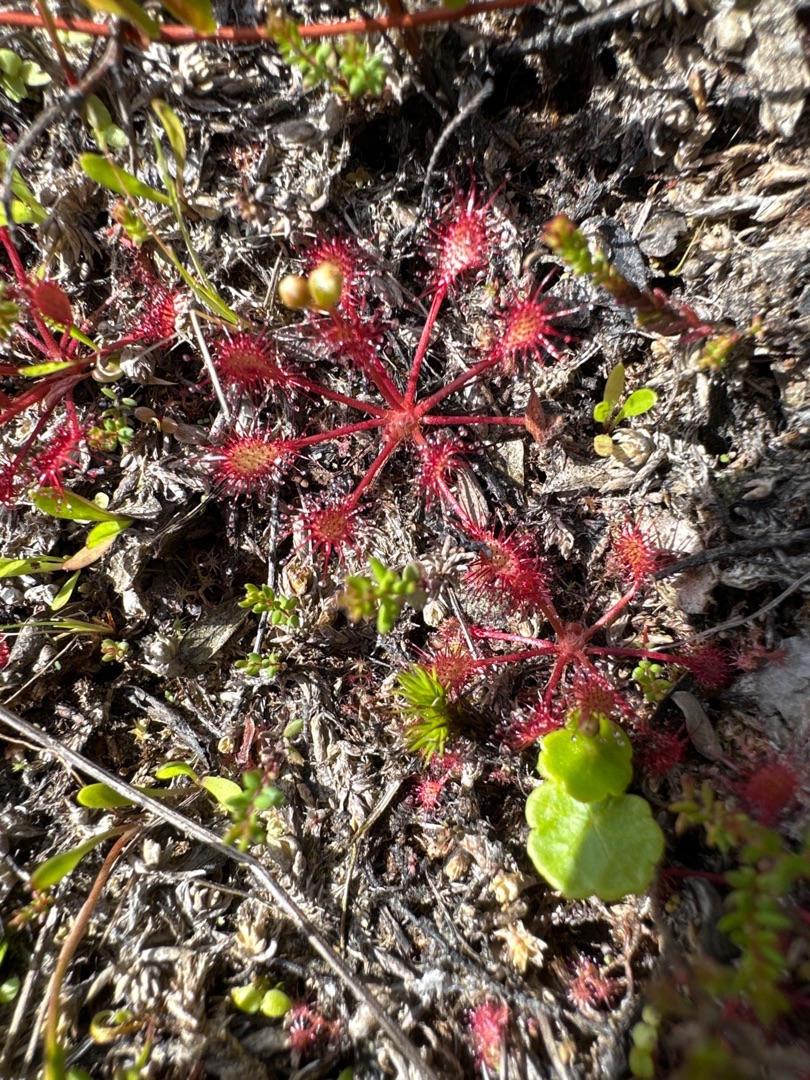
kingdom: Plantae
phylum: Tracheophyta
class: Magnoliopsida
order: Caryophyllales
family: Droseraceae
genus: Drosera
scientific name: Drosera intermedia
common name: Liden soldug
